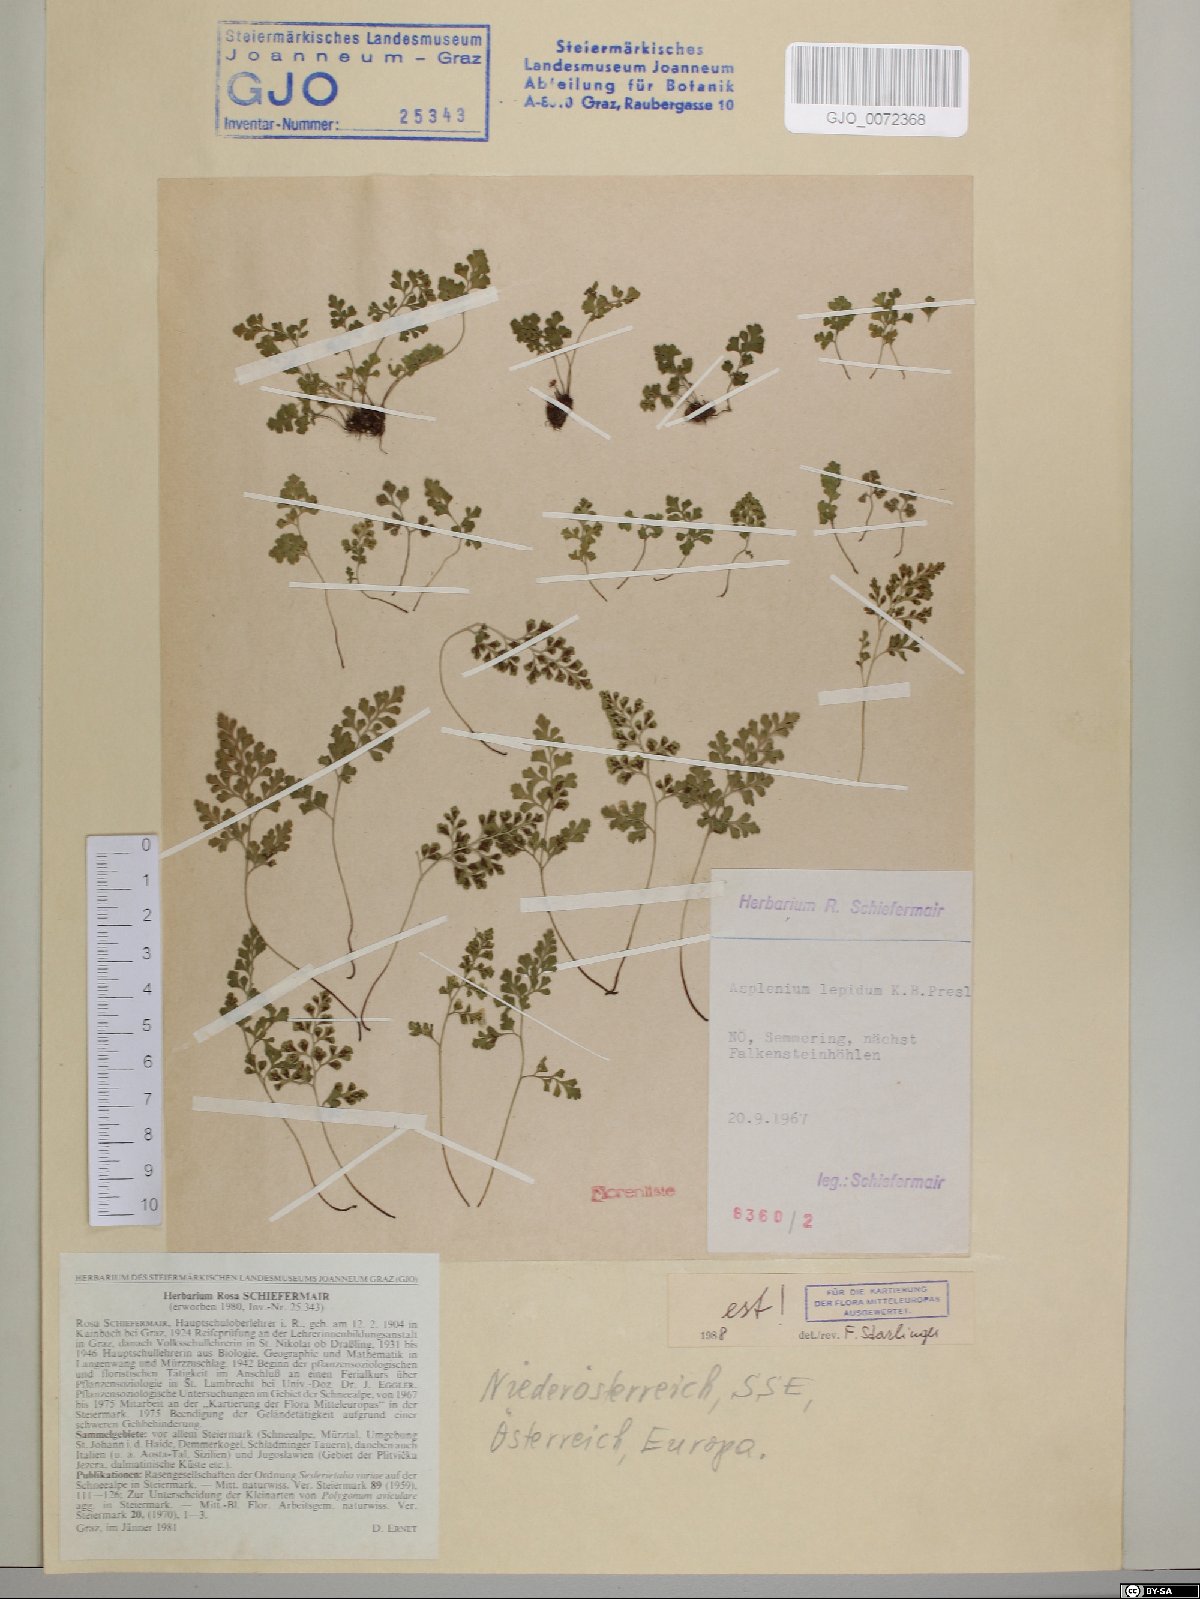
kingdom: Plantae
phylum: Tracheophyta
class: Polypodiopsida
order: Polypodiales
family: Aspleniaceae
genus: Asplenium
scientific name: Asplenium lepidum
